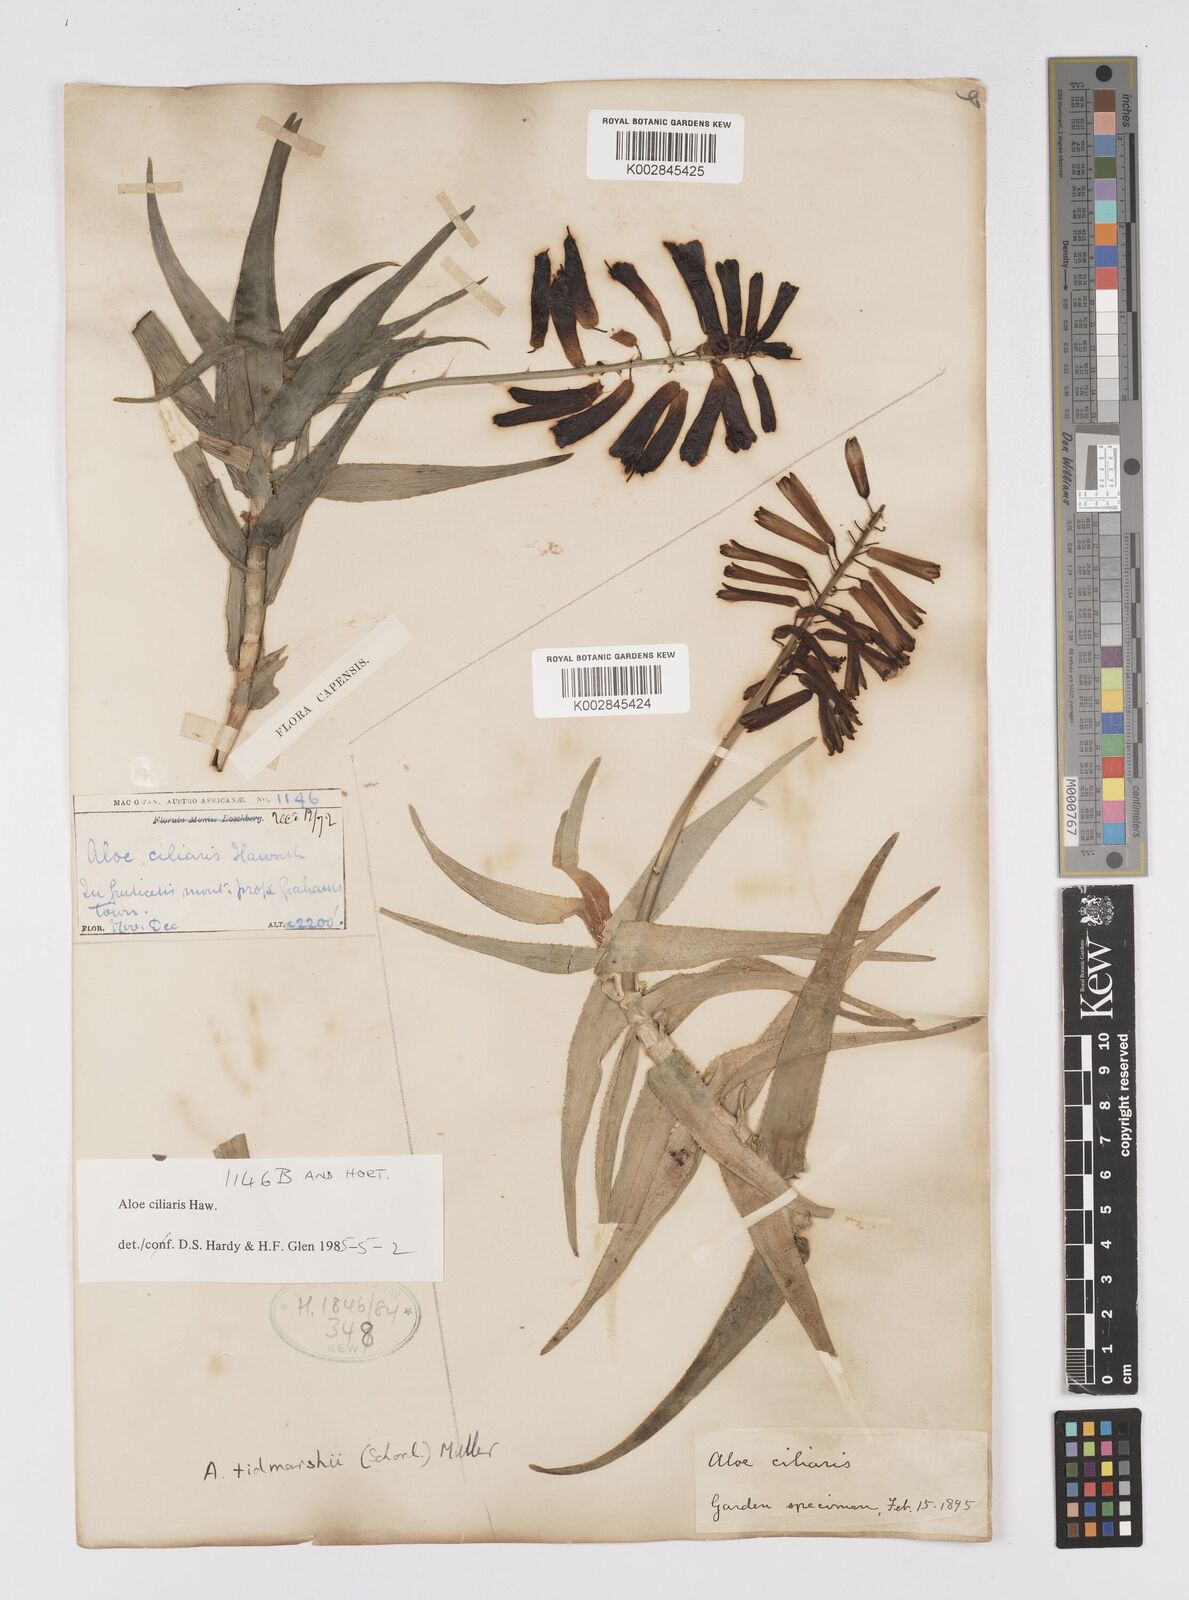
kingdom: Plantae
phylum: Tracheophyta
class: Liliopsida
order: Asparagales
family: Asphodelaceae
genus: Aloiampelos
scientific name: Aloiampelos ciliaris
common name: Climbing aloe
